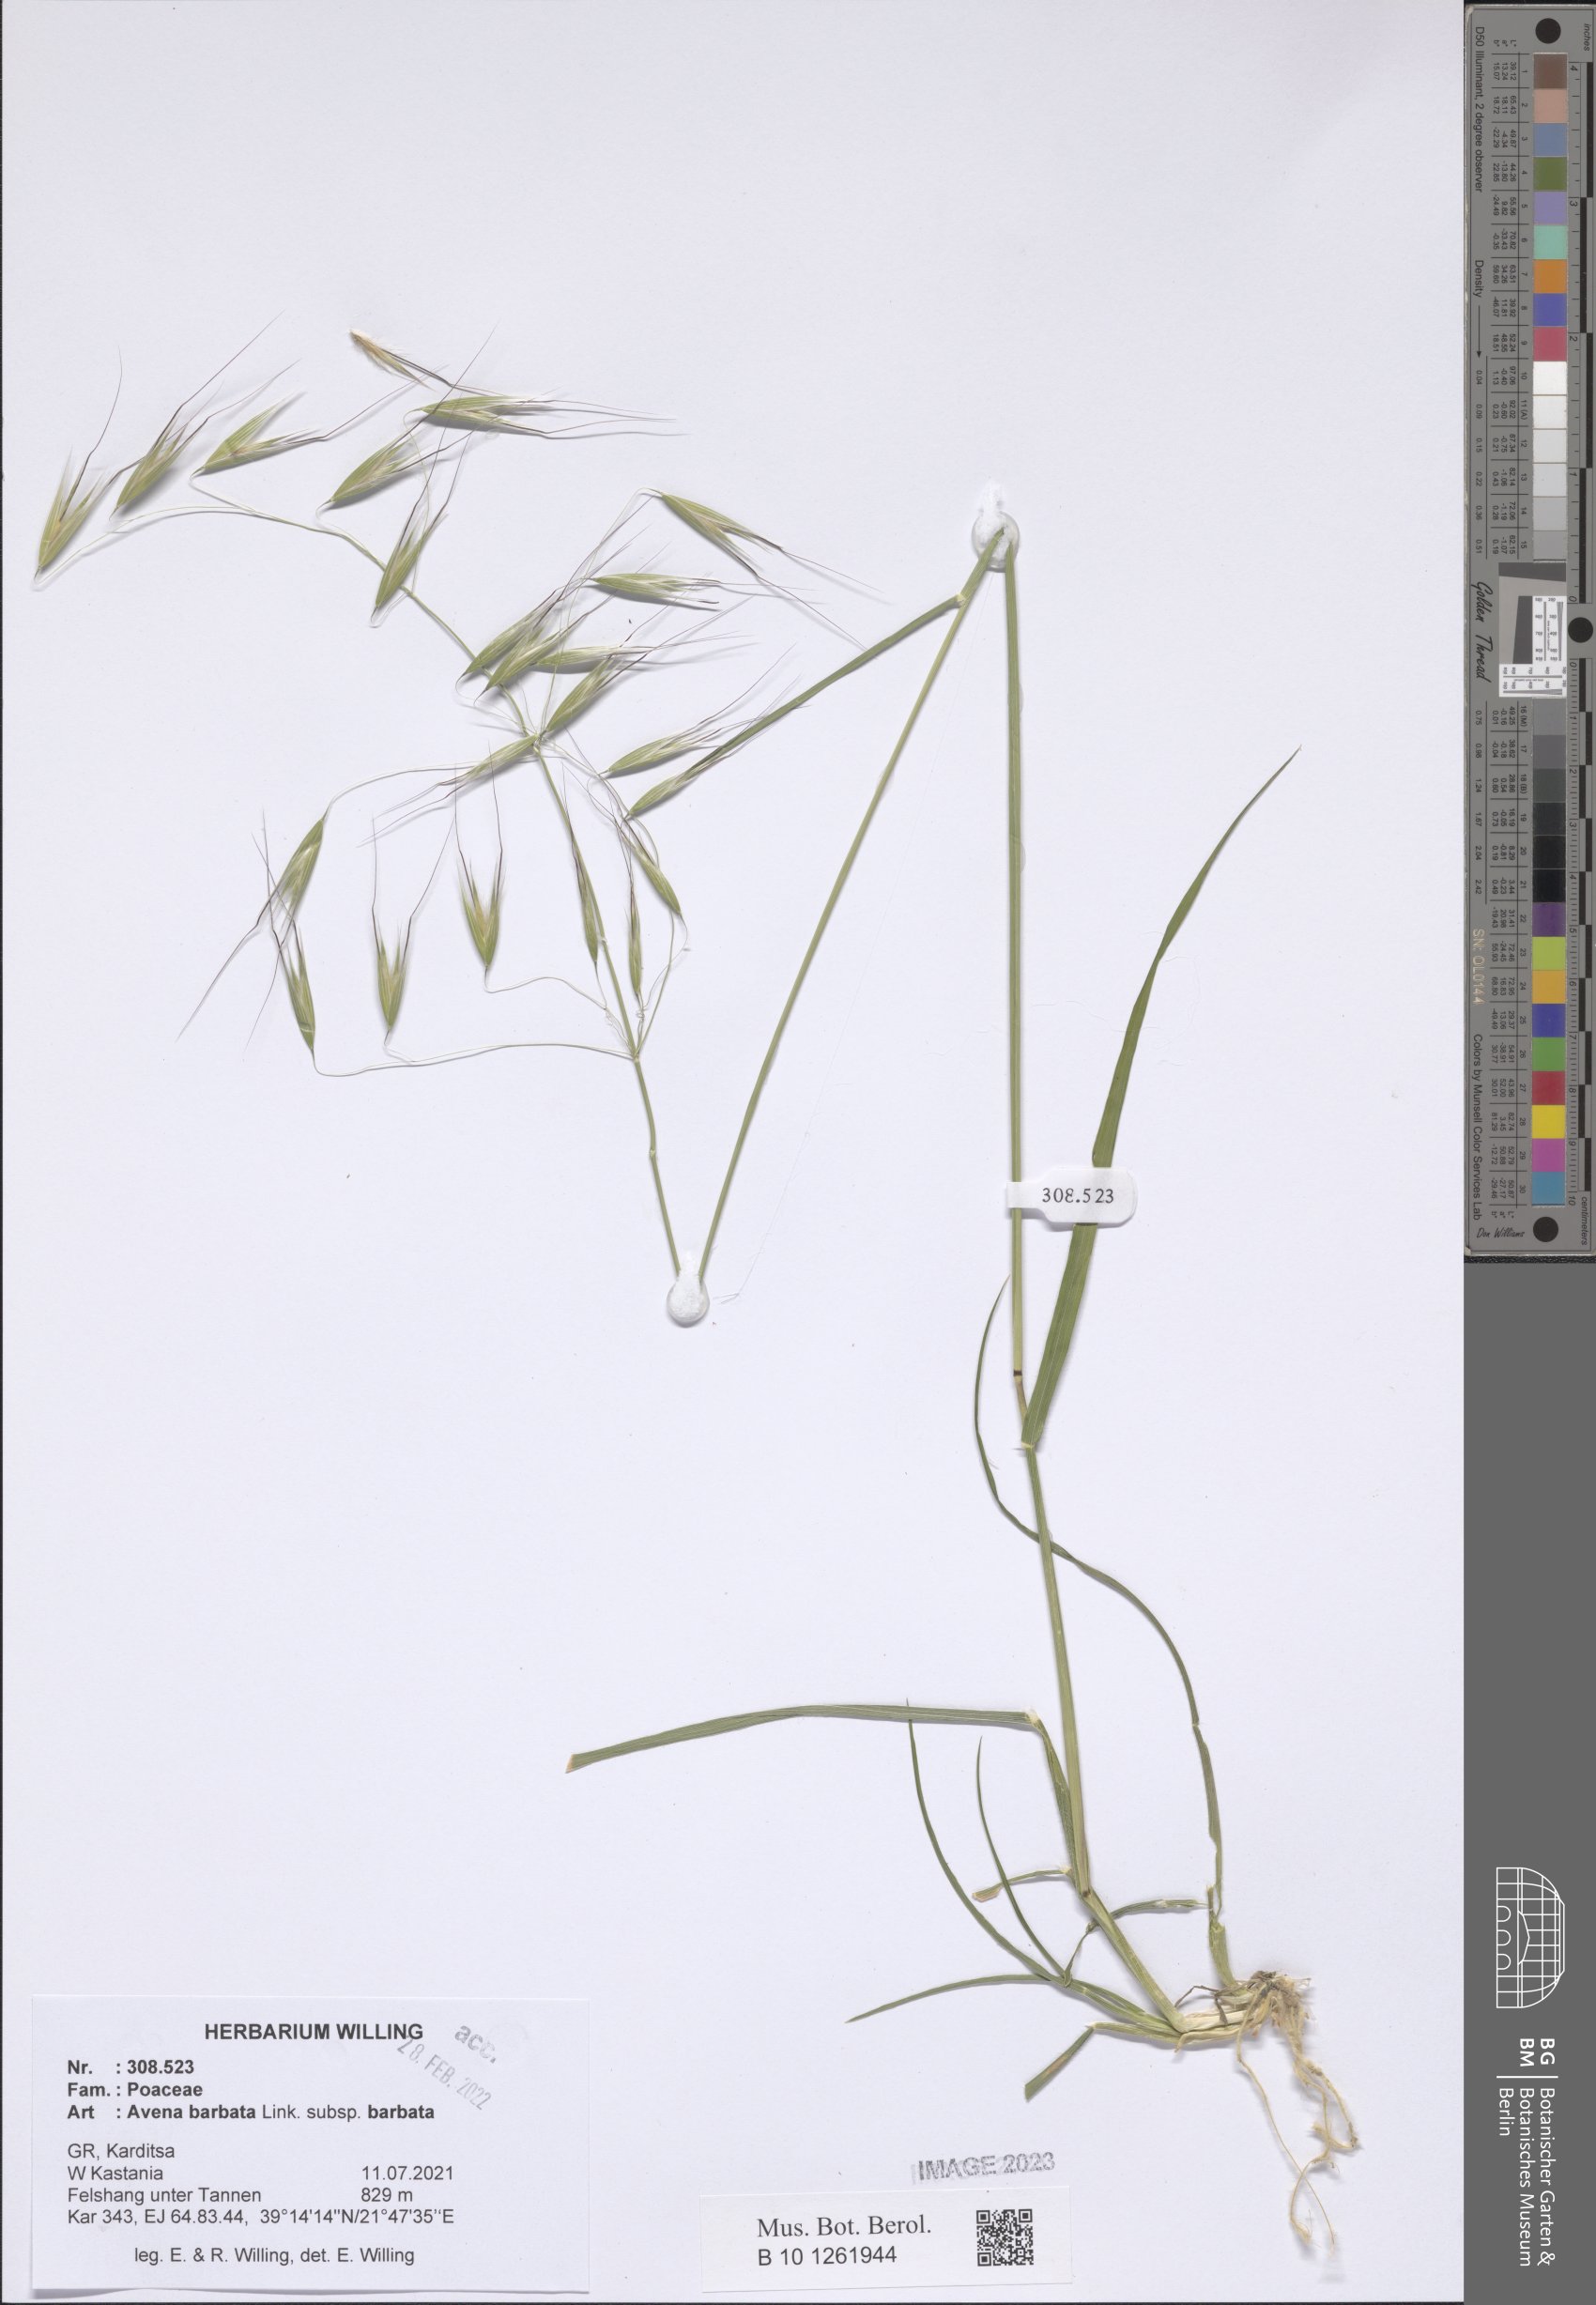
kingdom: Plantae
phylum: Tracheophyta
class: Liliopsida
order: Poales
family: Poaceae
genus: Avena
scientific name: Avena barbata
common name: Slender oat
